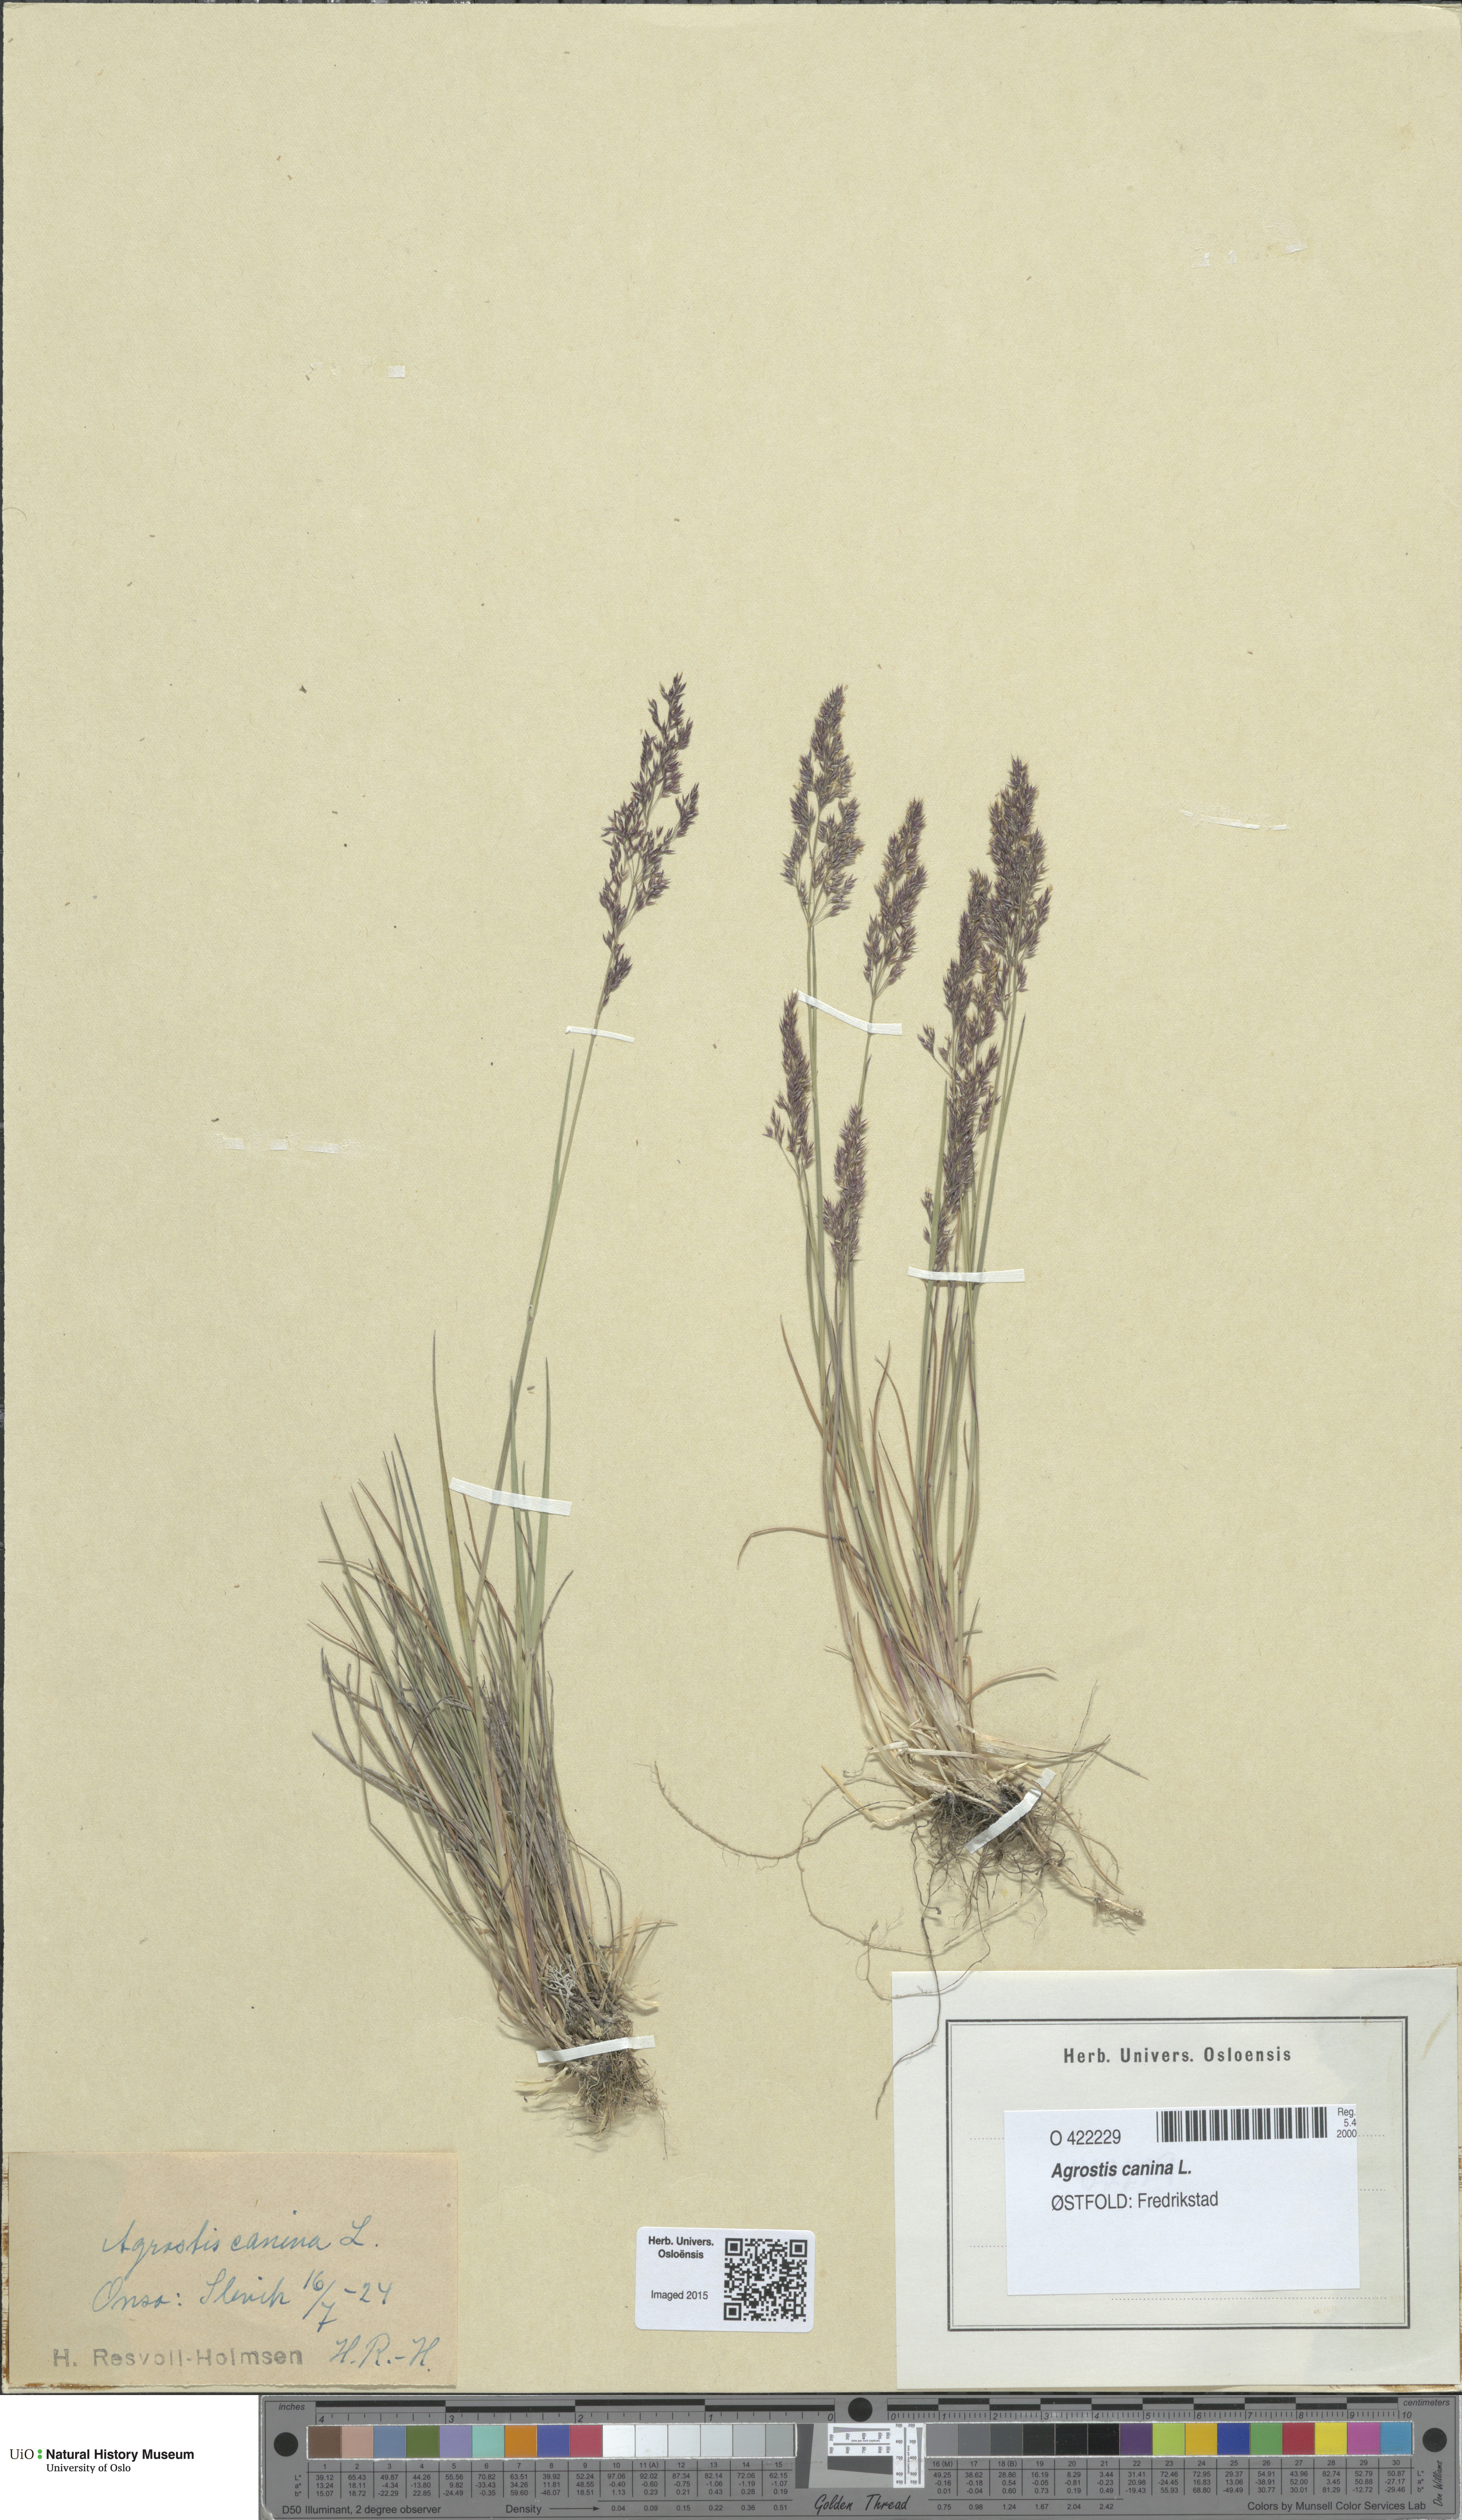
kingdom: Plantae
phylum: Tracheophyta
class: Liliopsida
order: Poales
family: Poaceae
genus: Agrostis
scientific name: Agrostis canina
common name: Velvet bent
